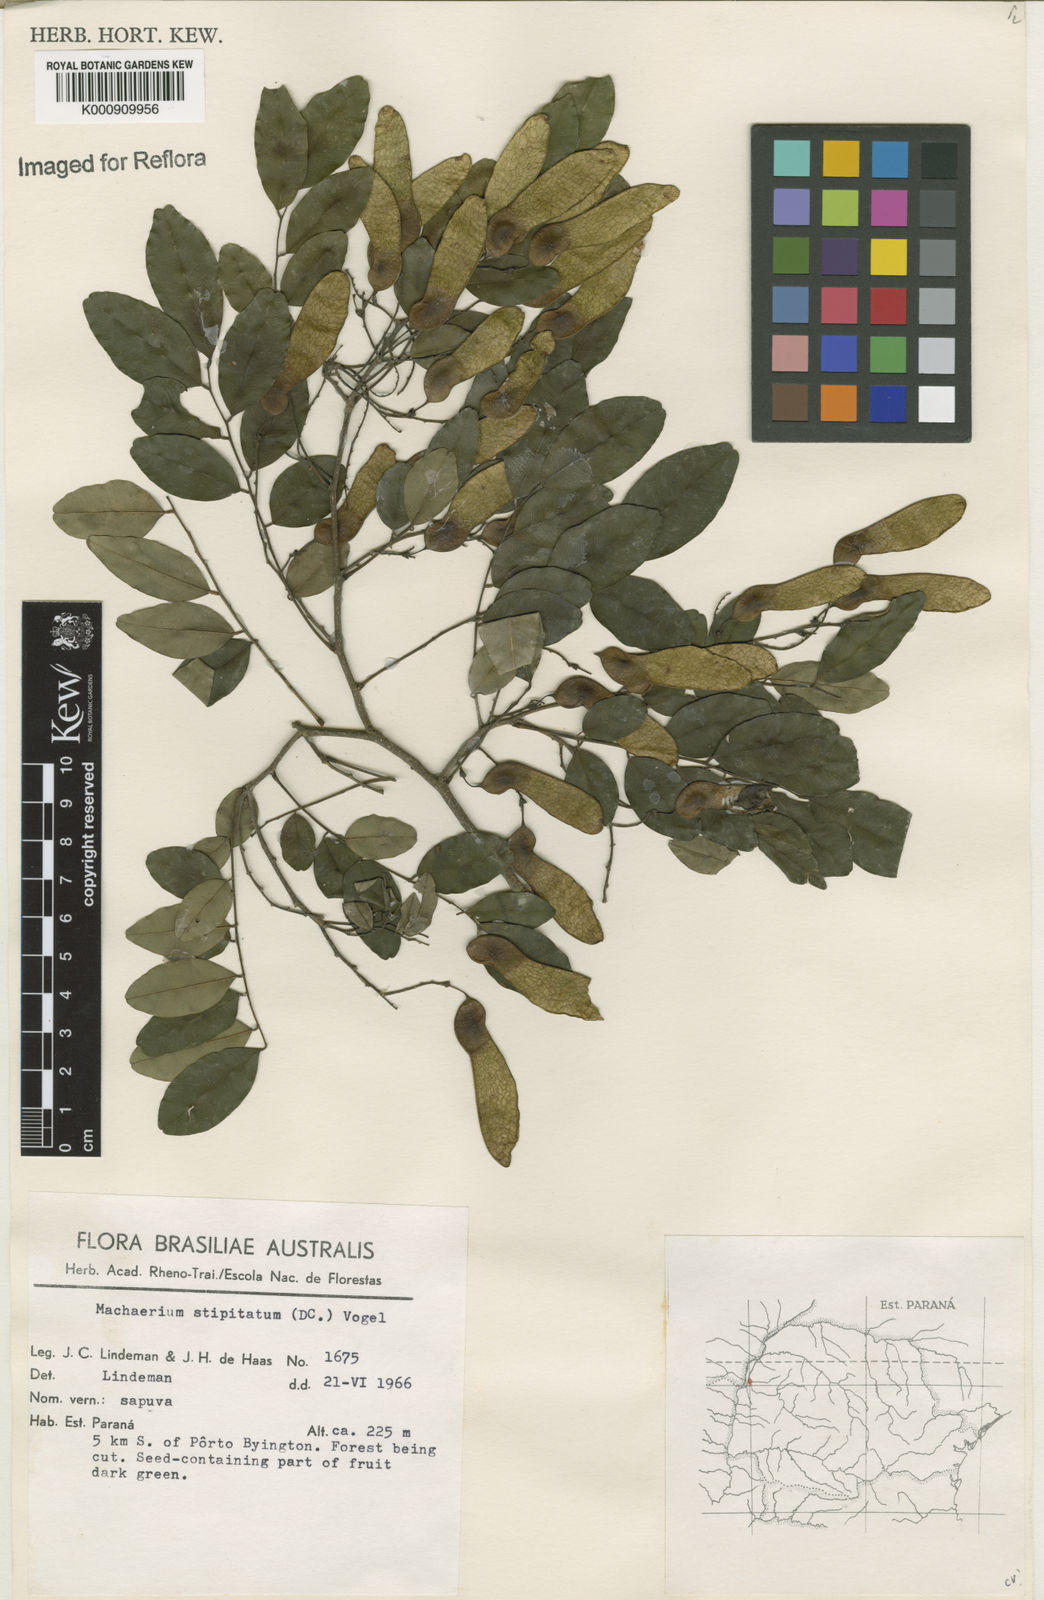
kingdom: Plantae
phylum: Tracheophyta
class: Magnoliopsida
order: Fabales
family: Fabaceae
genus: Machaerium
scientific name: Machaerium stipitatum
